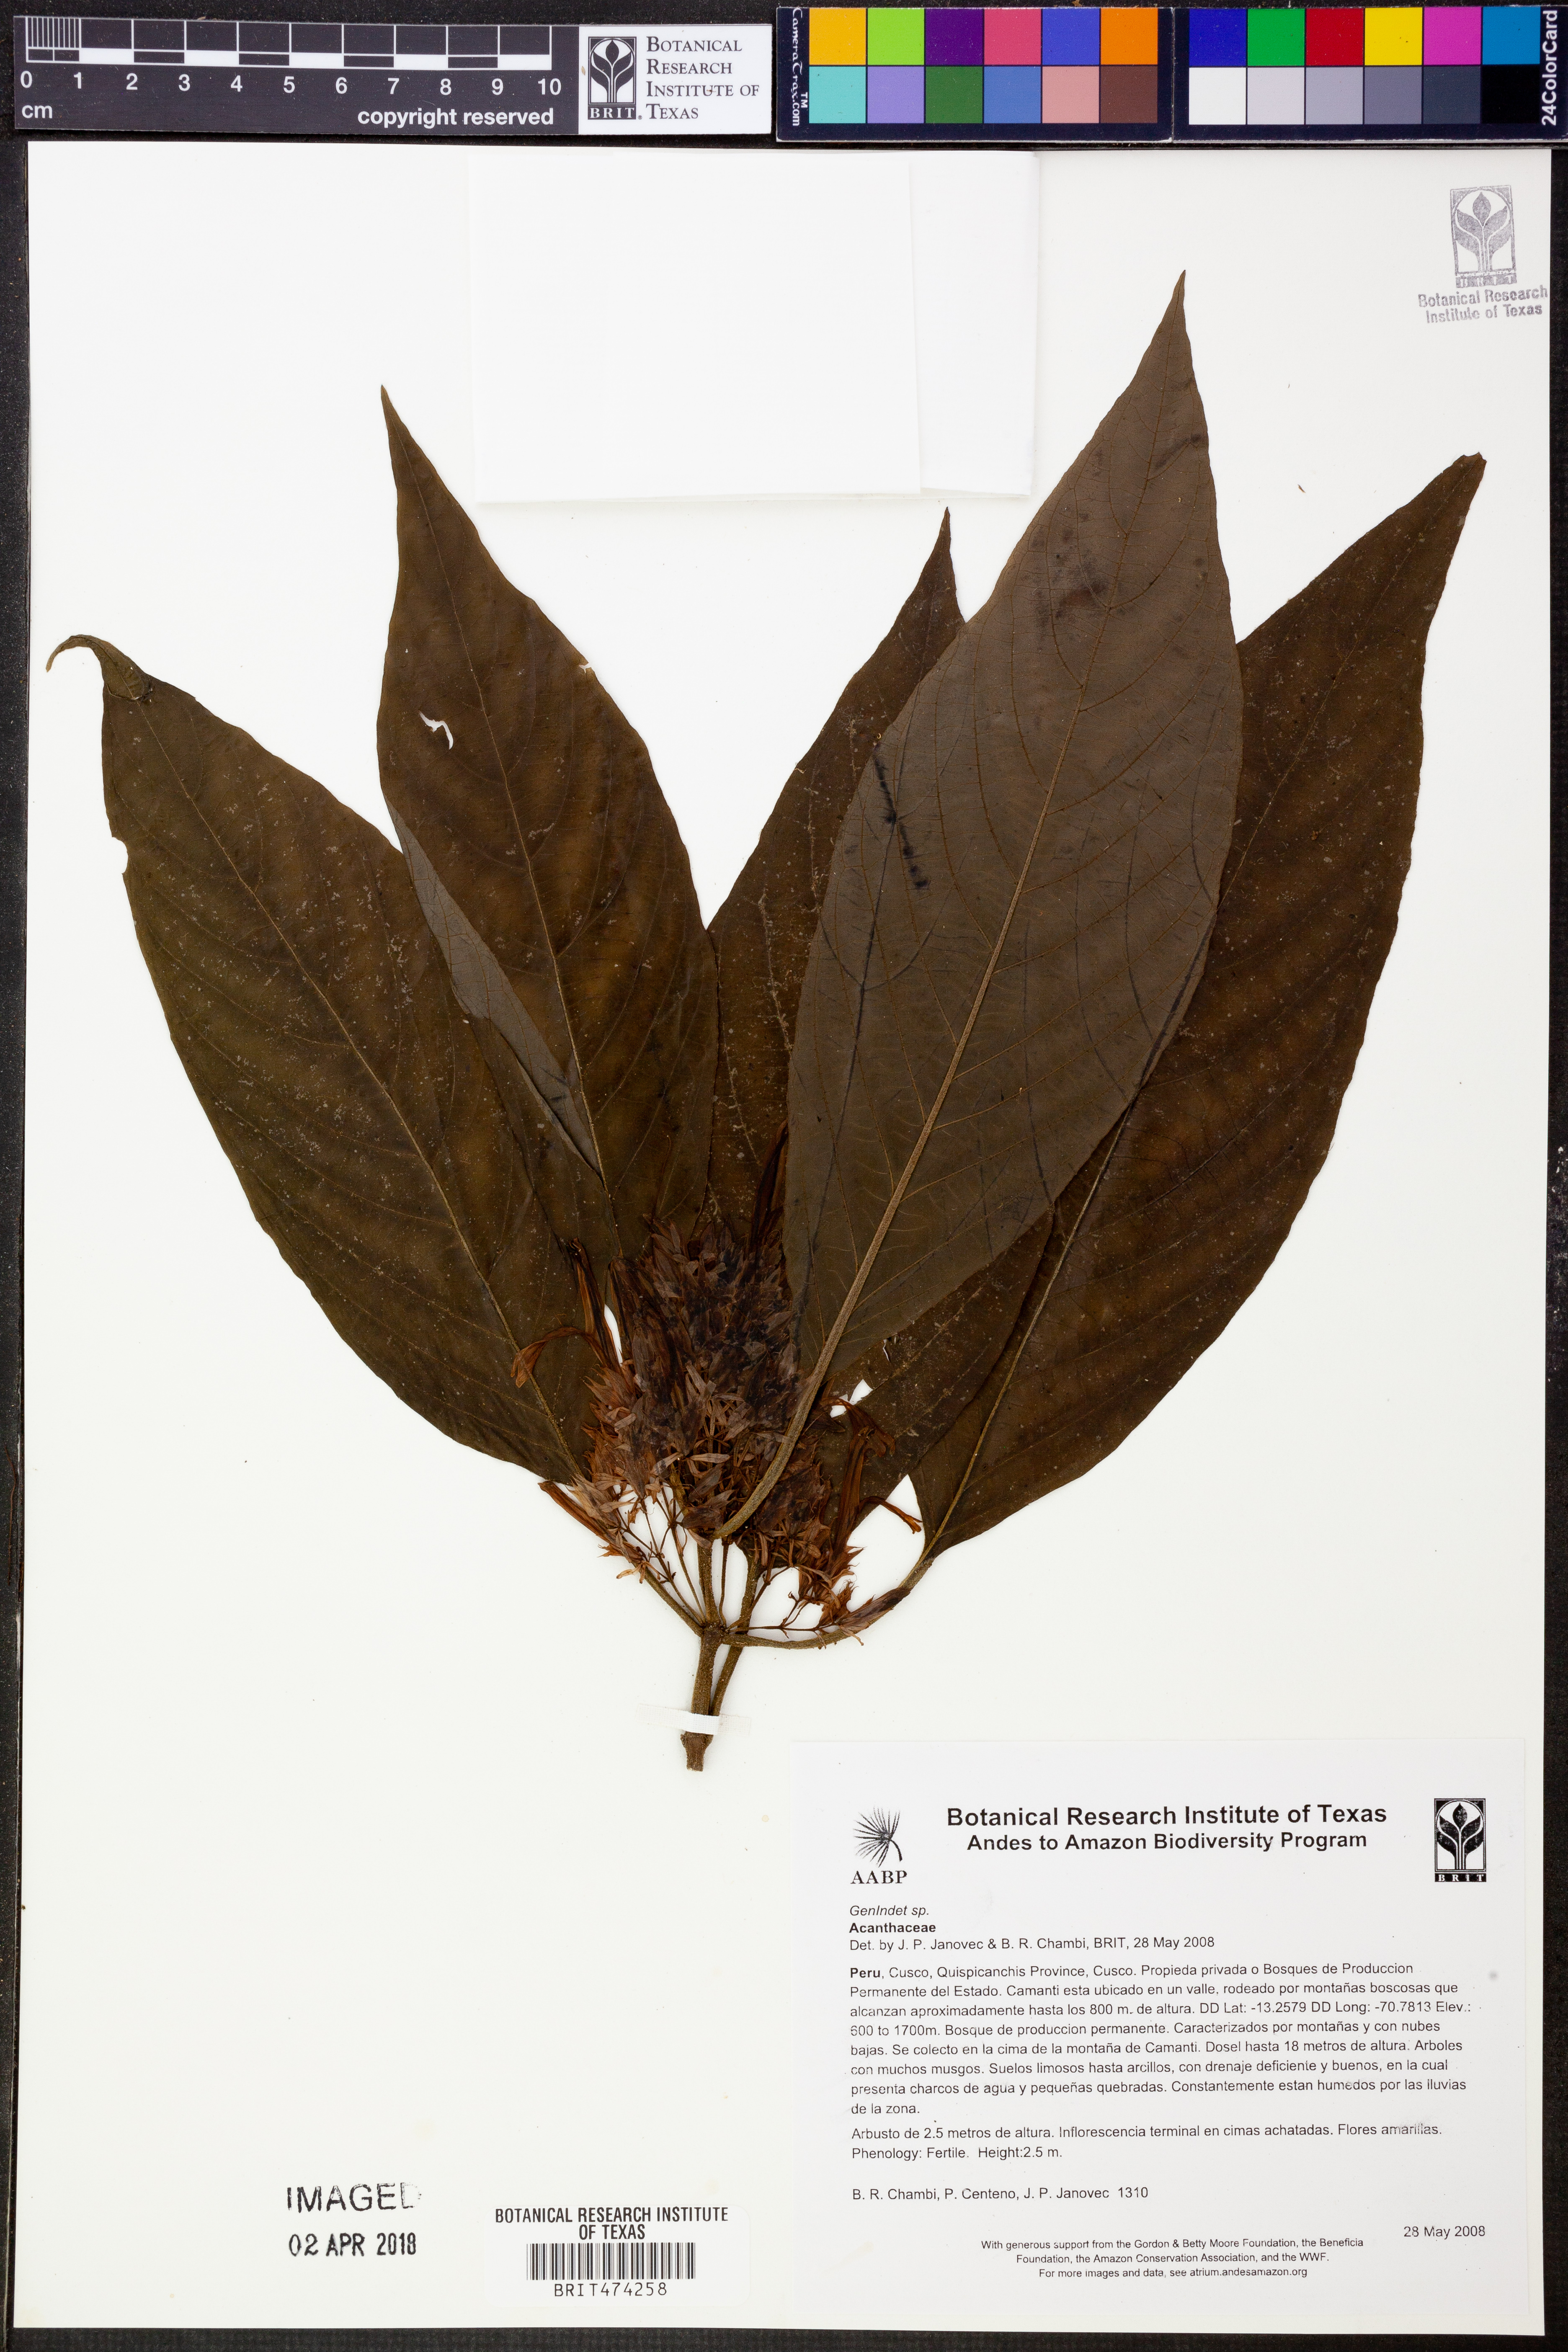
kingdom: Plantae
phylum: Tracheophyta
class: Magnoliopsida
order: Lamiales
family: Acanthaceae
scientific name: Acanthaceae
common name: Acanthaceae
